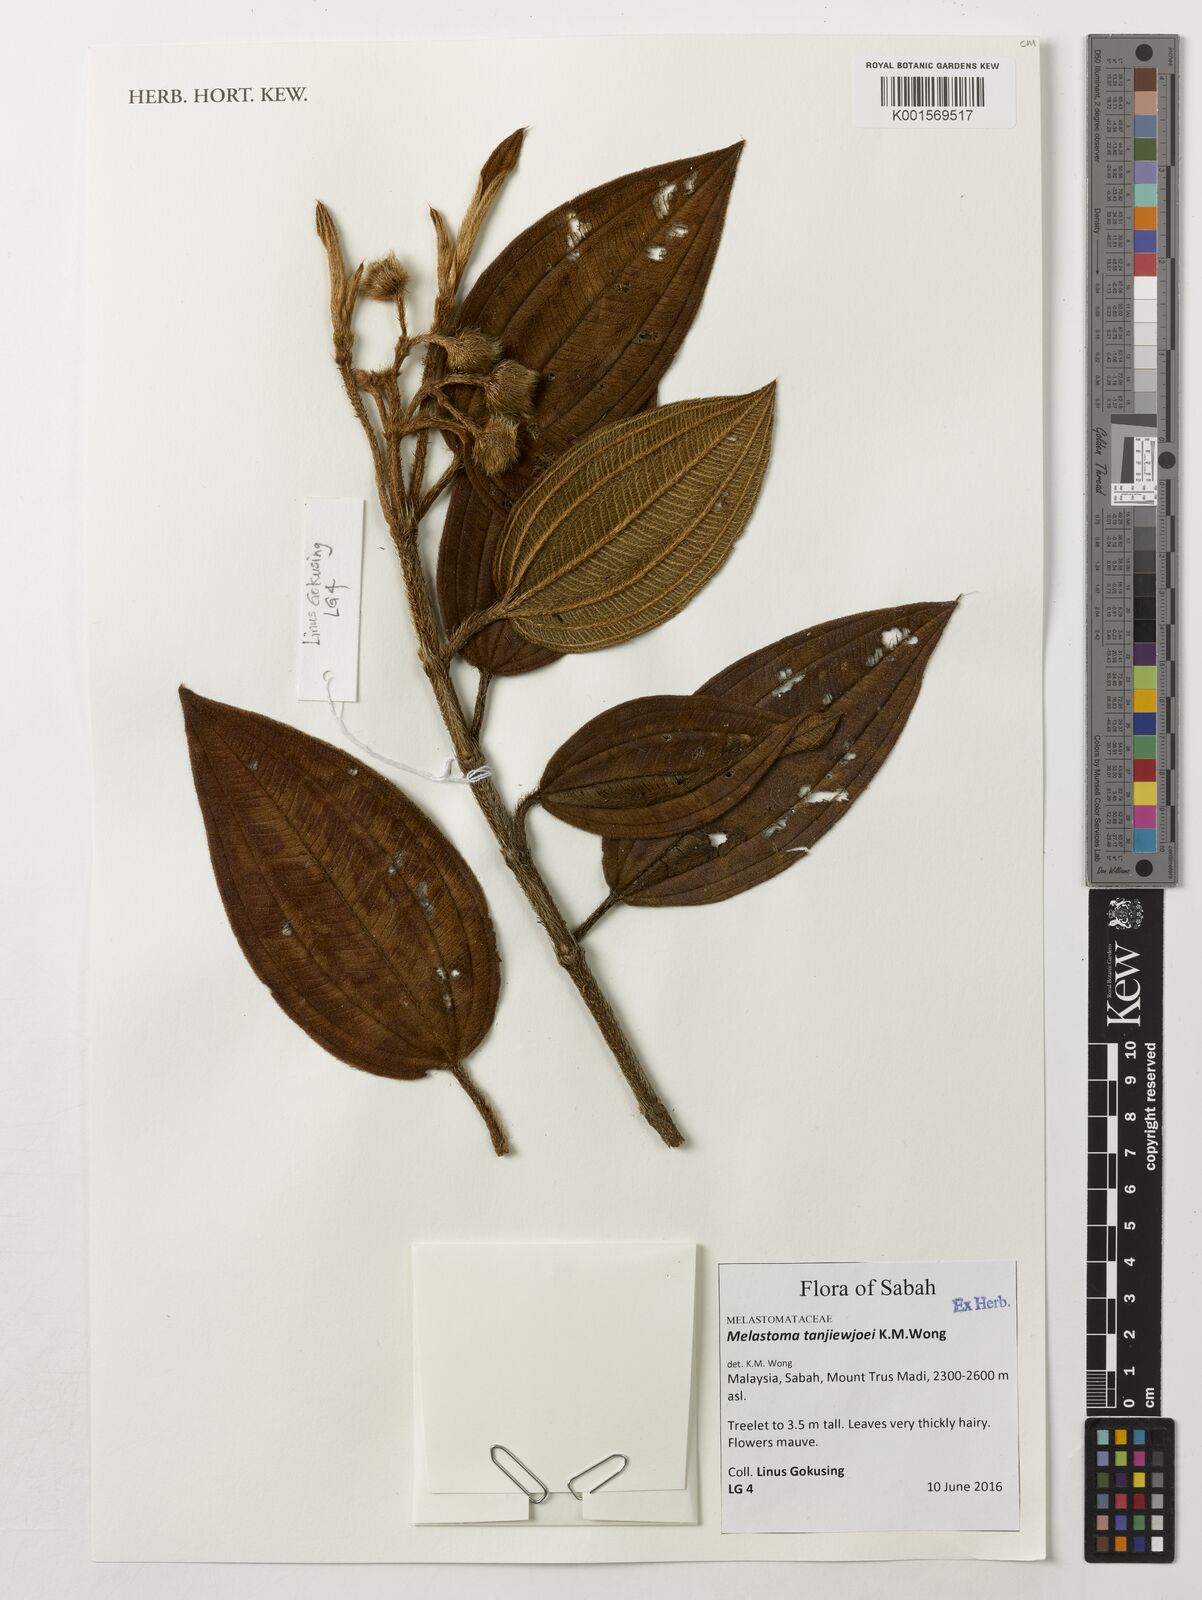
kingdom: Plantae
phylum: Tracheophyta
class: Magnoliopsida
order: Myrtales
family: Melastomataceae
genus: Melastoma
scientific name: Melastoma tanjiewhoei
